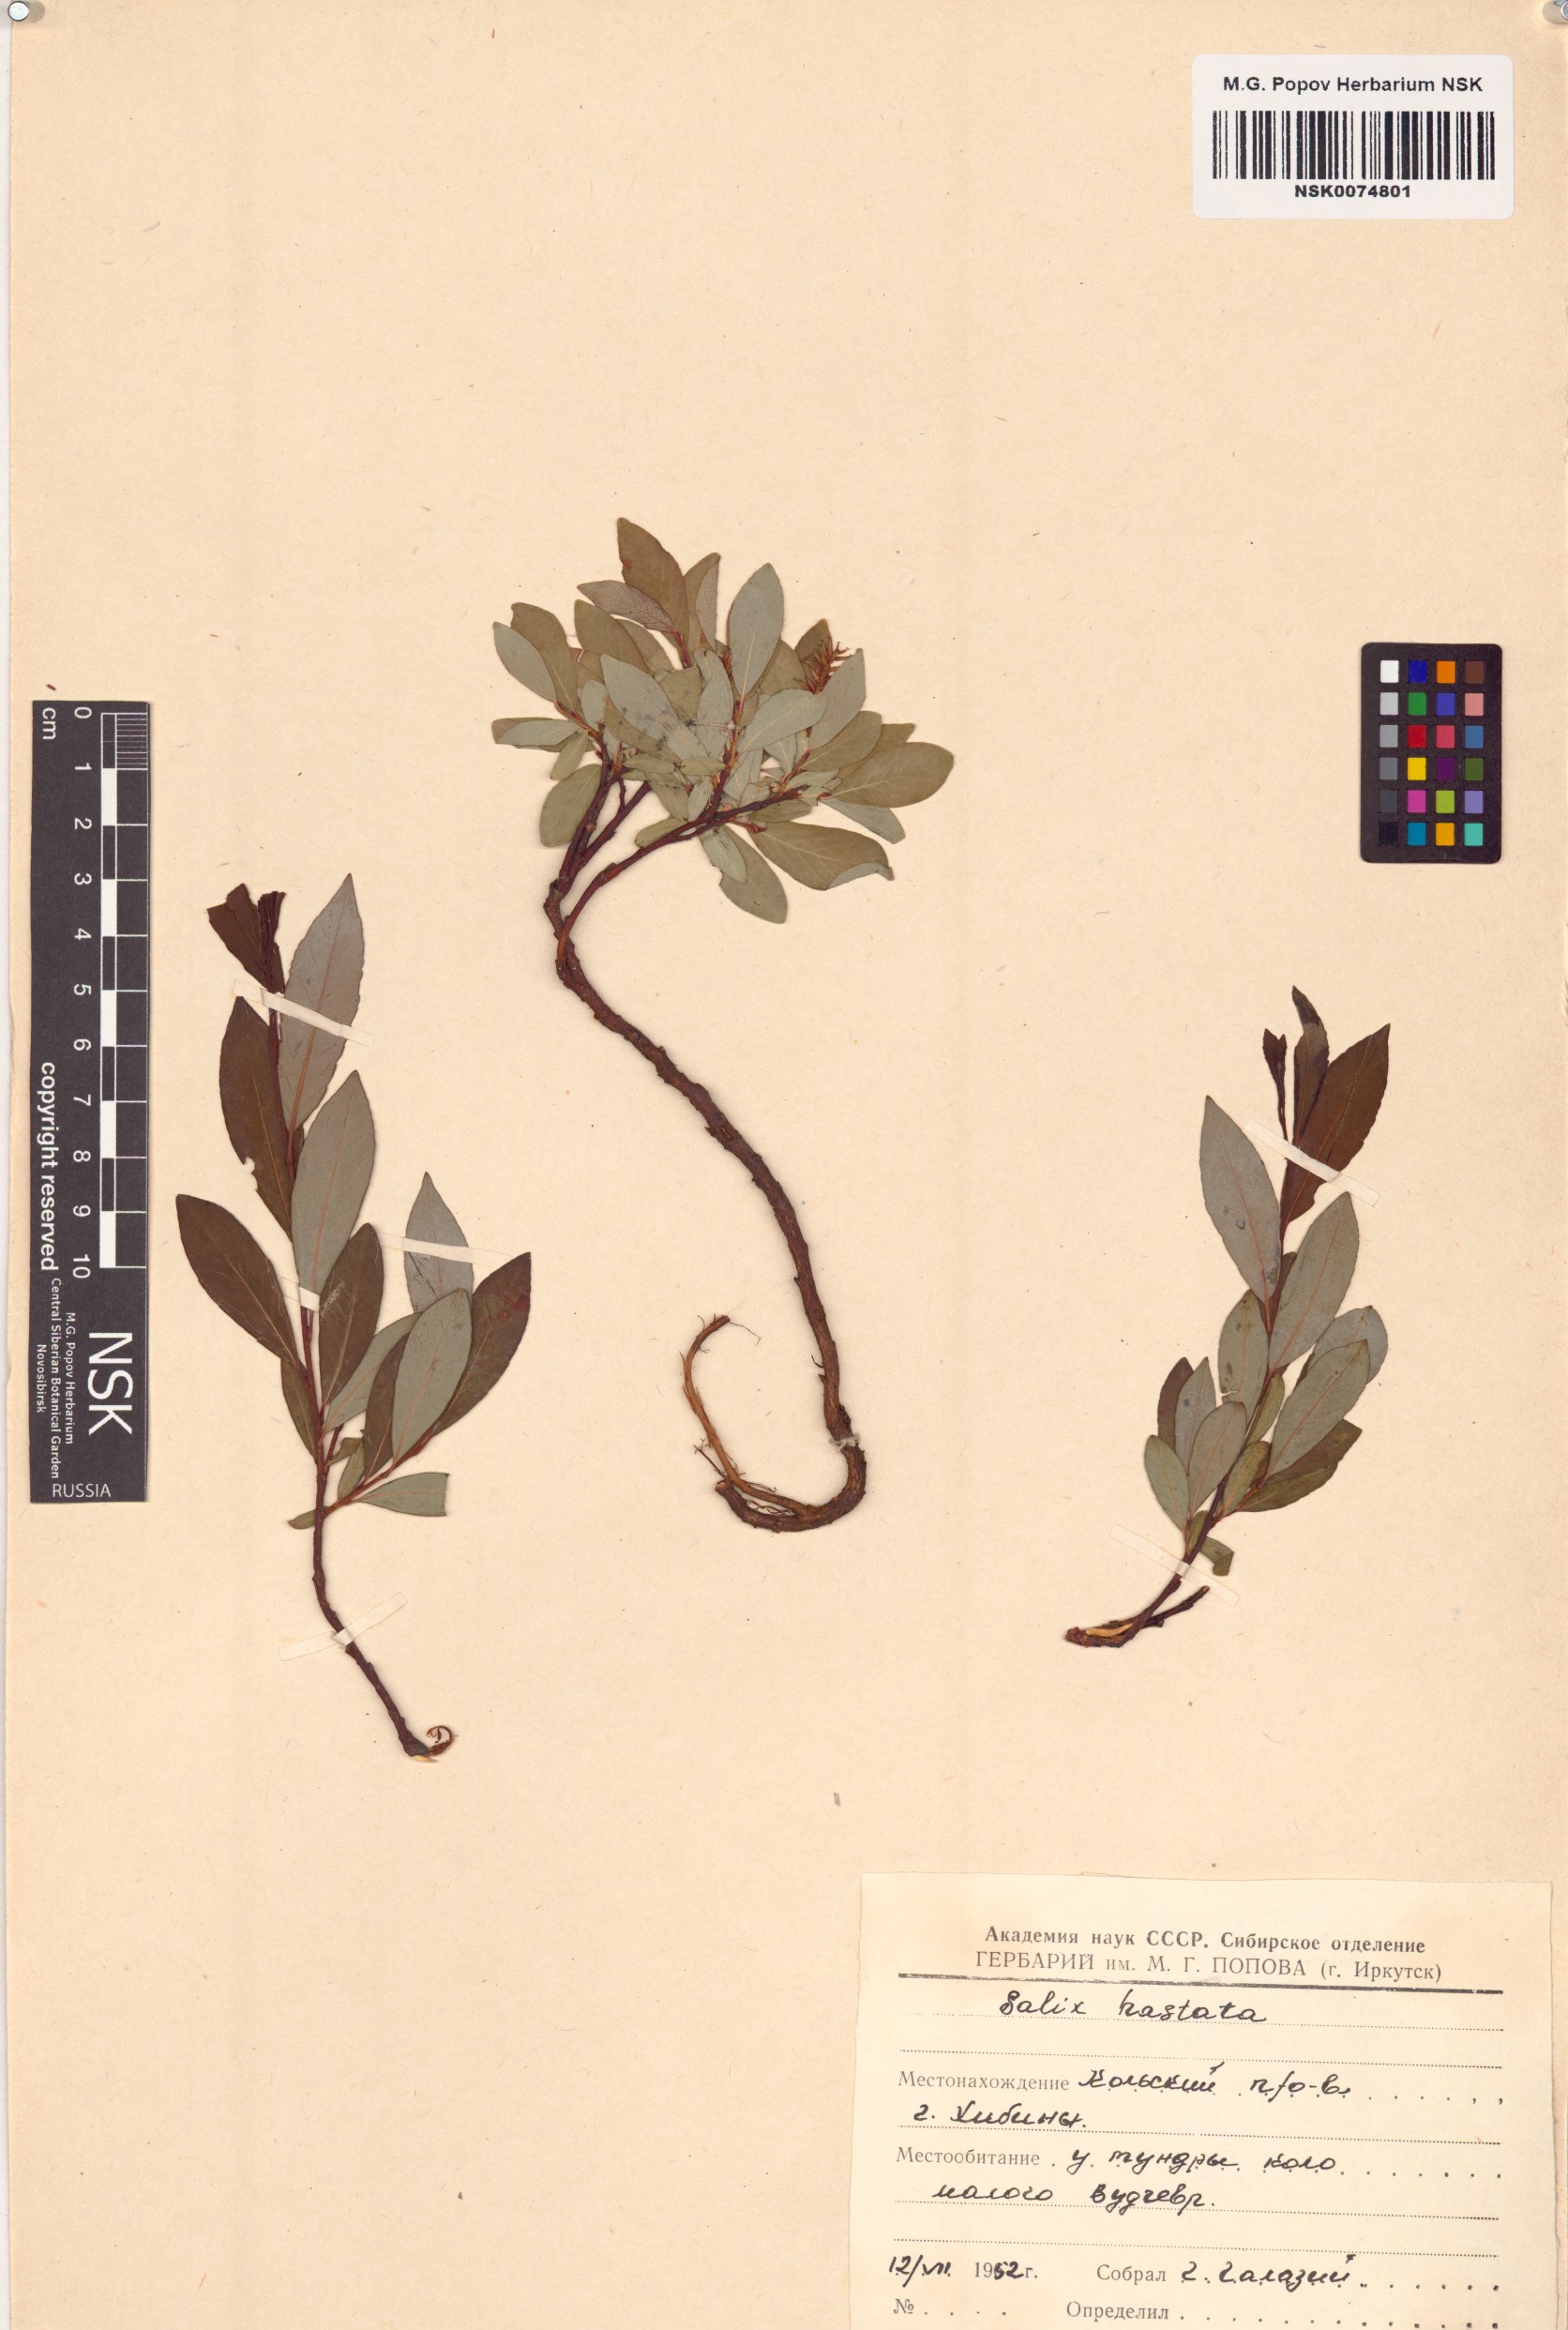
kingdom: Plantae
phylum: Tracheophyta
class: Magnoliopsida
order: Malpighiales
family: Salicaceae
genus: Salix
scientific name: Salix hastata
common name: Halberd willow
